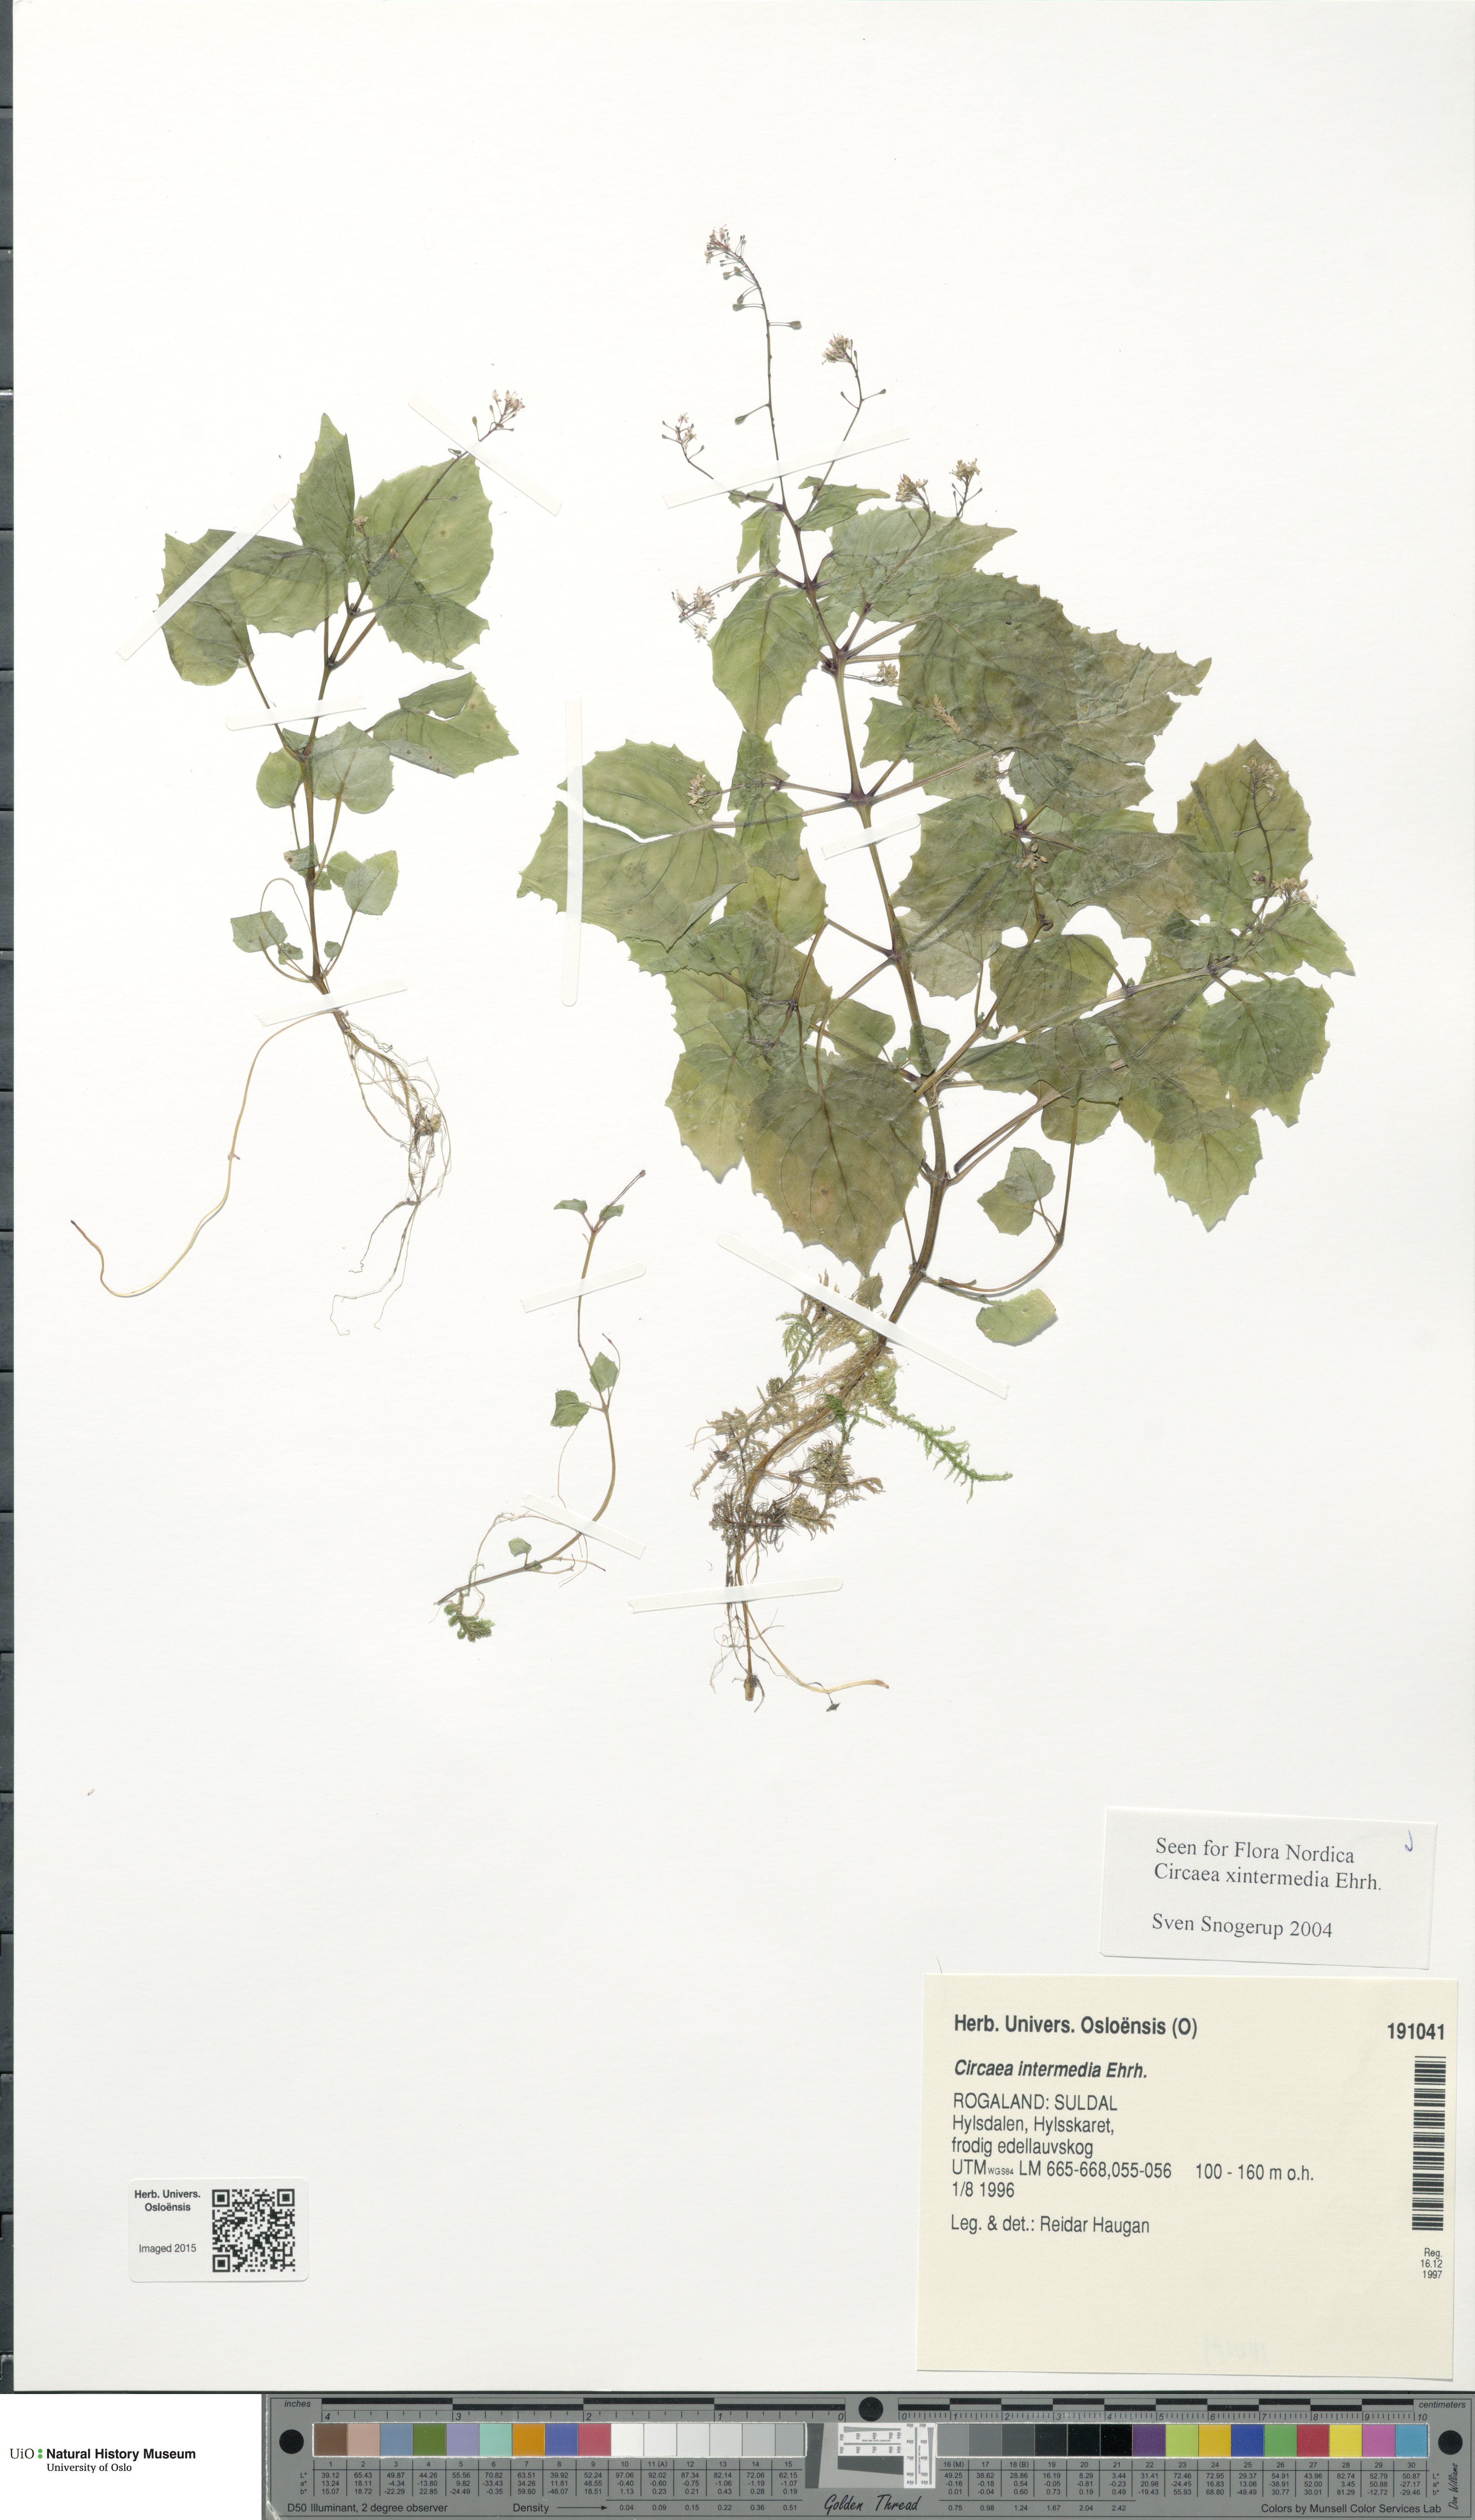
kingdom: Plantae
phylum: Tracheophyta
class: Magnoliopsida
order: Myrtales
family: Onagraceae
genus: Circaea
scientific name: Circaea intermedia
